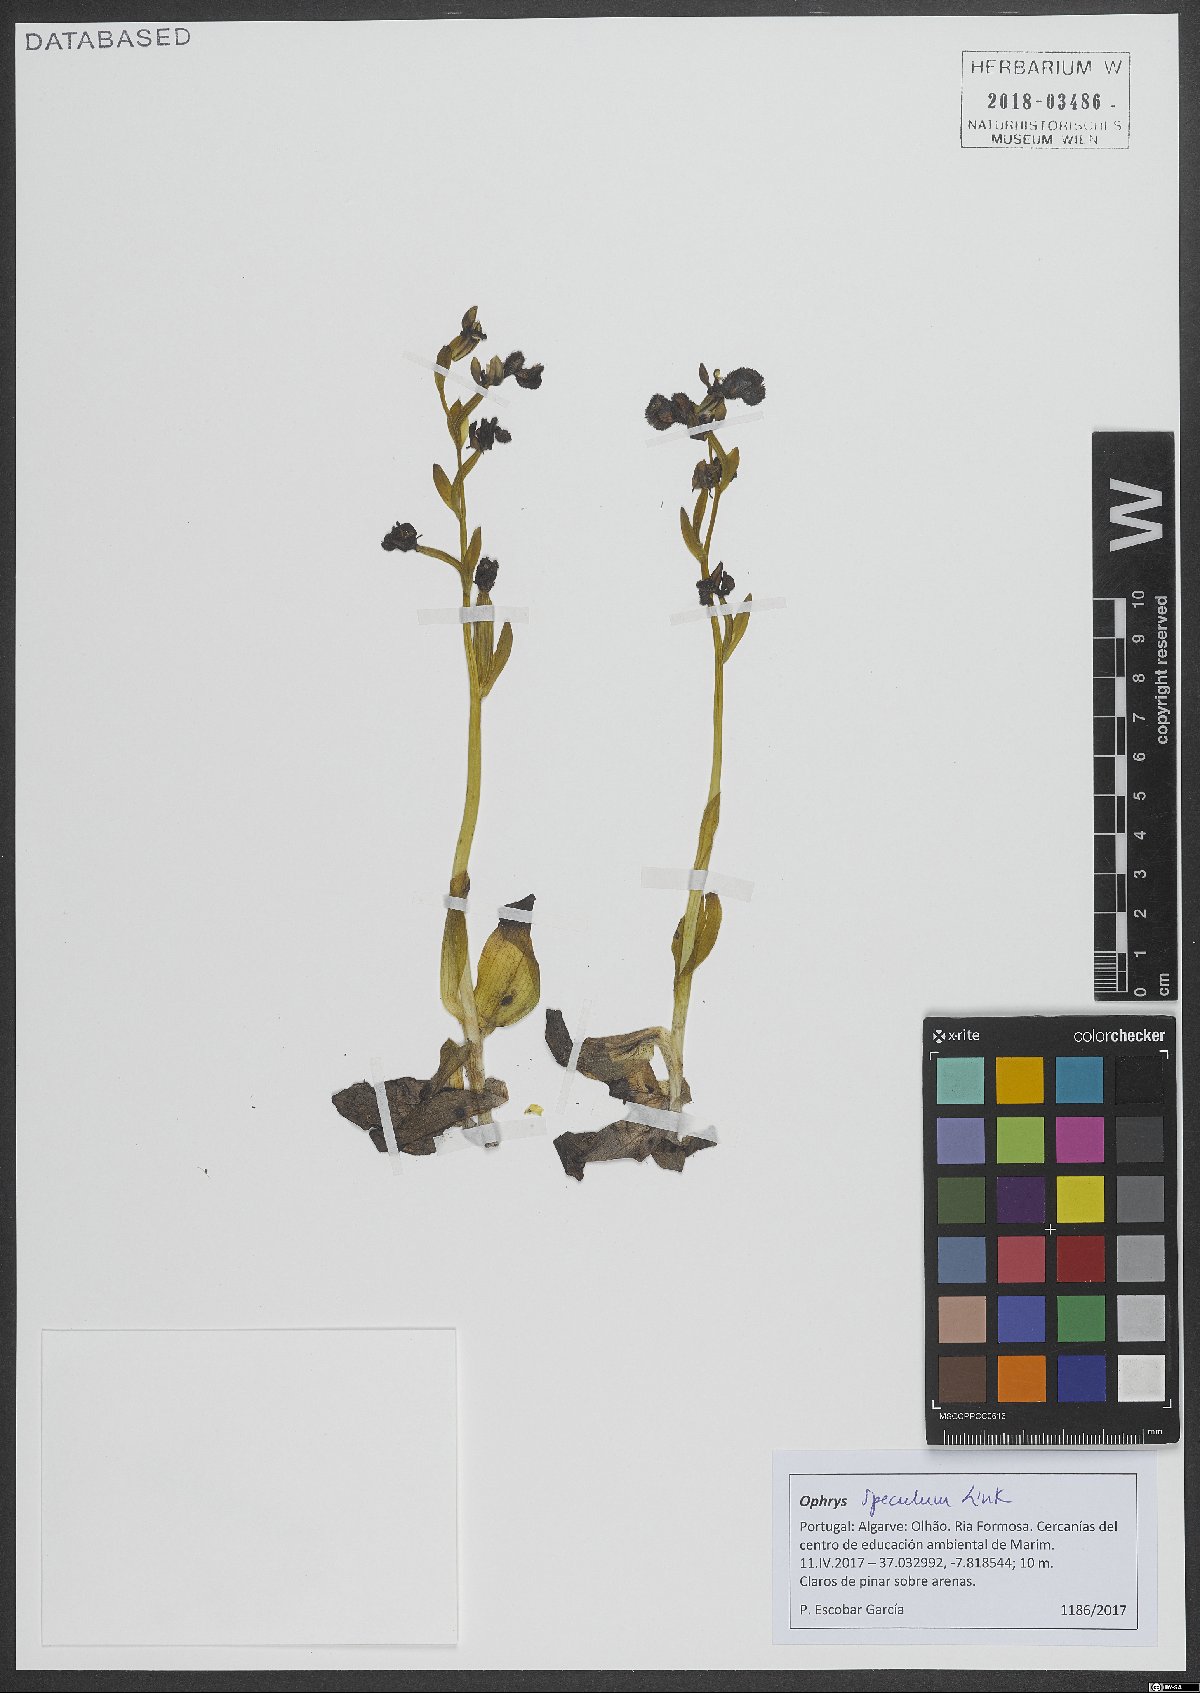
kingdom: Plantae
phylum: Tracheophyta
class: Liliopsida
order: Asparagales
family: Orchidaceae
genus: Ophrys
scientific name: Ophrys speculum
